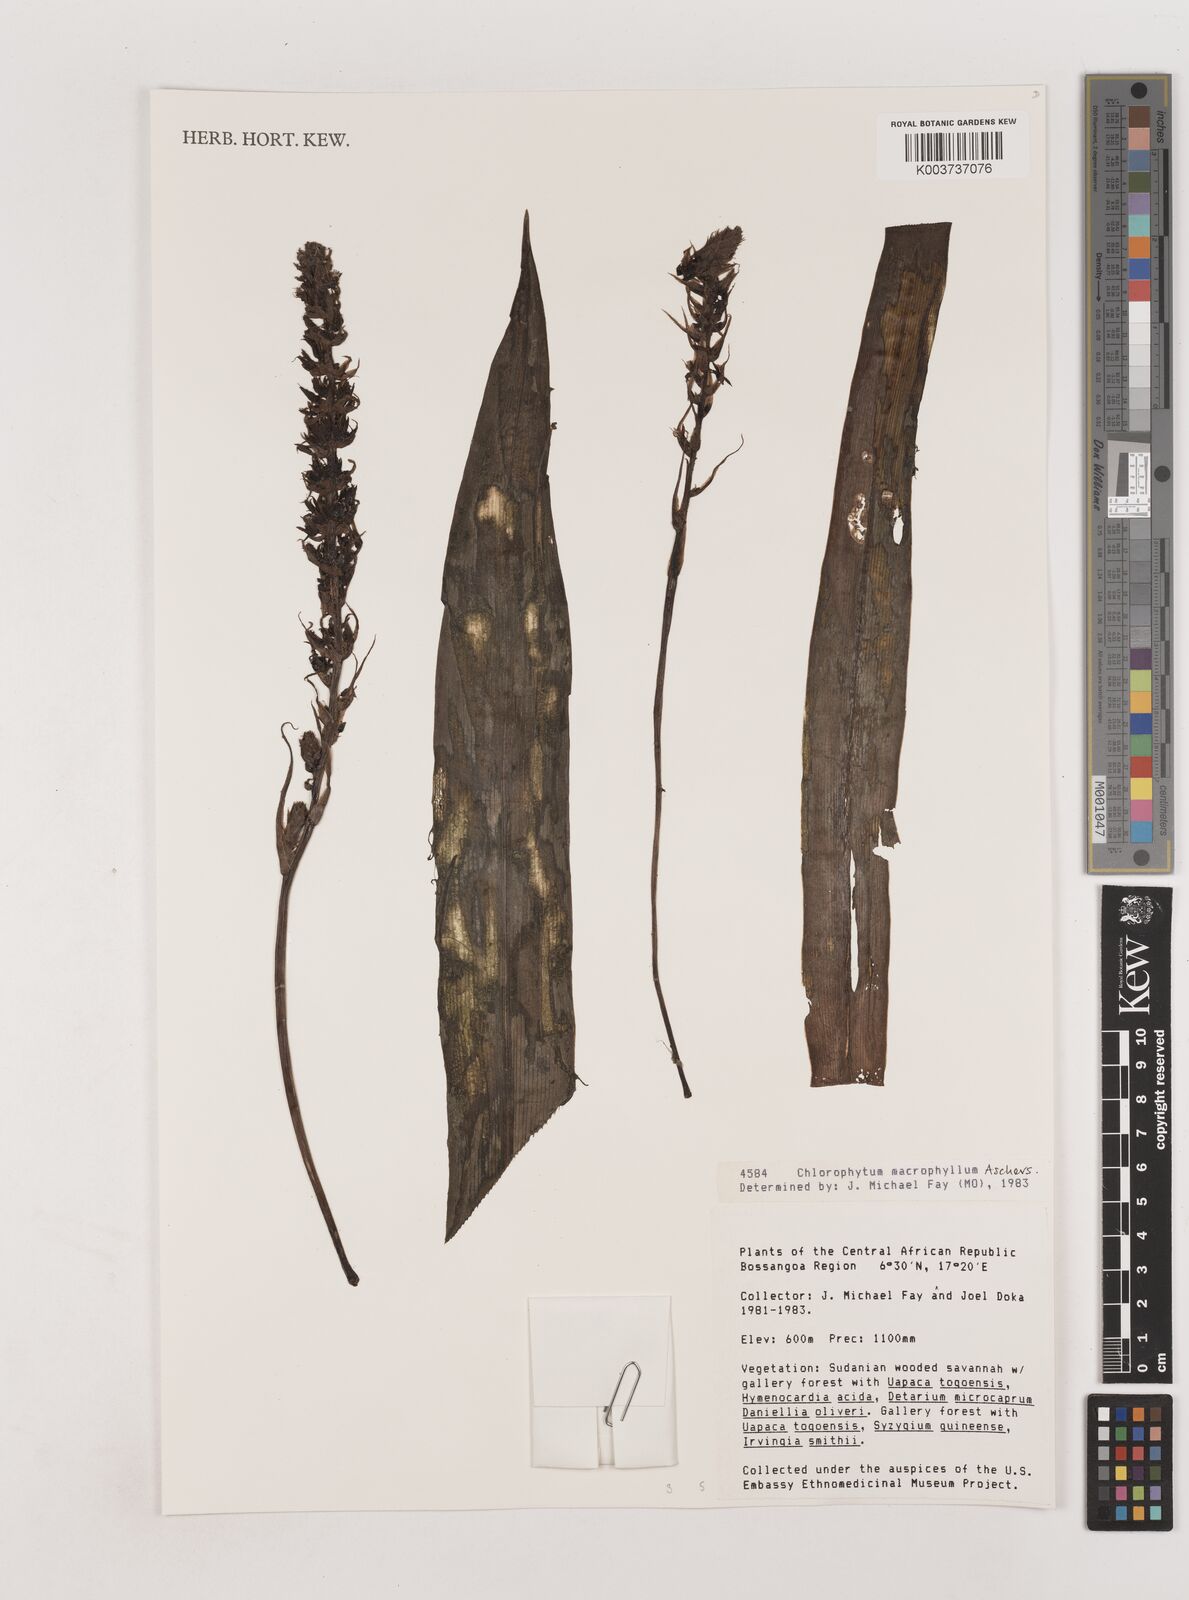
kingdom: Plantae
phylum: Tracheophyta
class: Liliopsida
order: Asparagales
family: Asparagaceae
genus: Chlorophytum
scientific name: Chlorophytum macrophyllum
